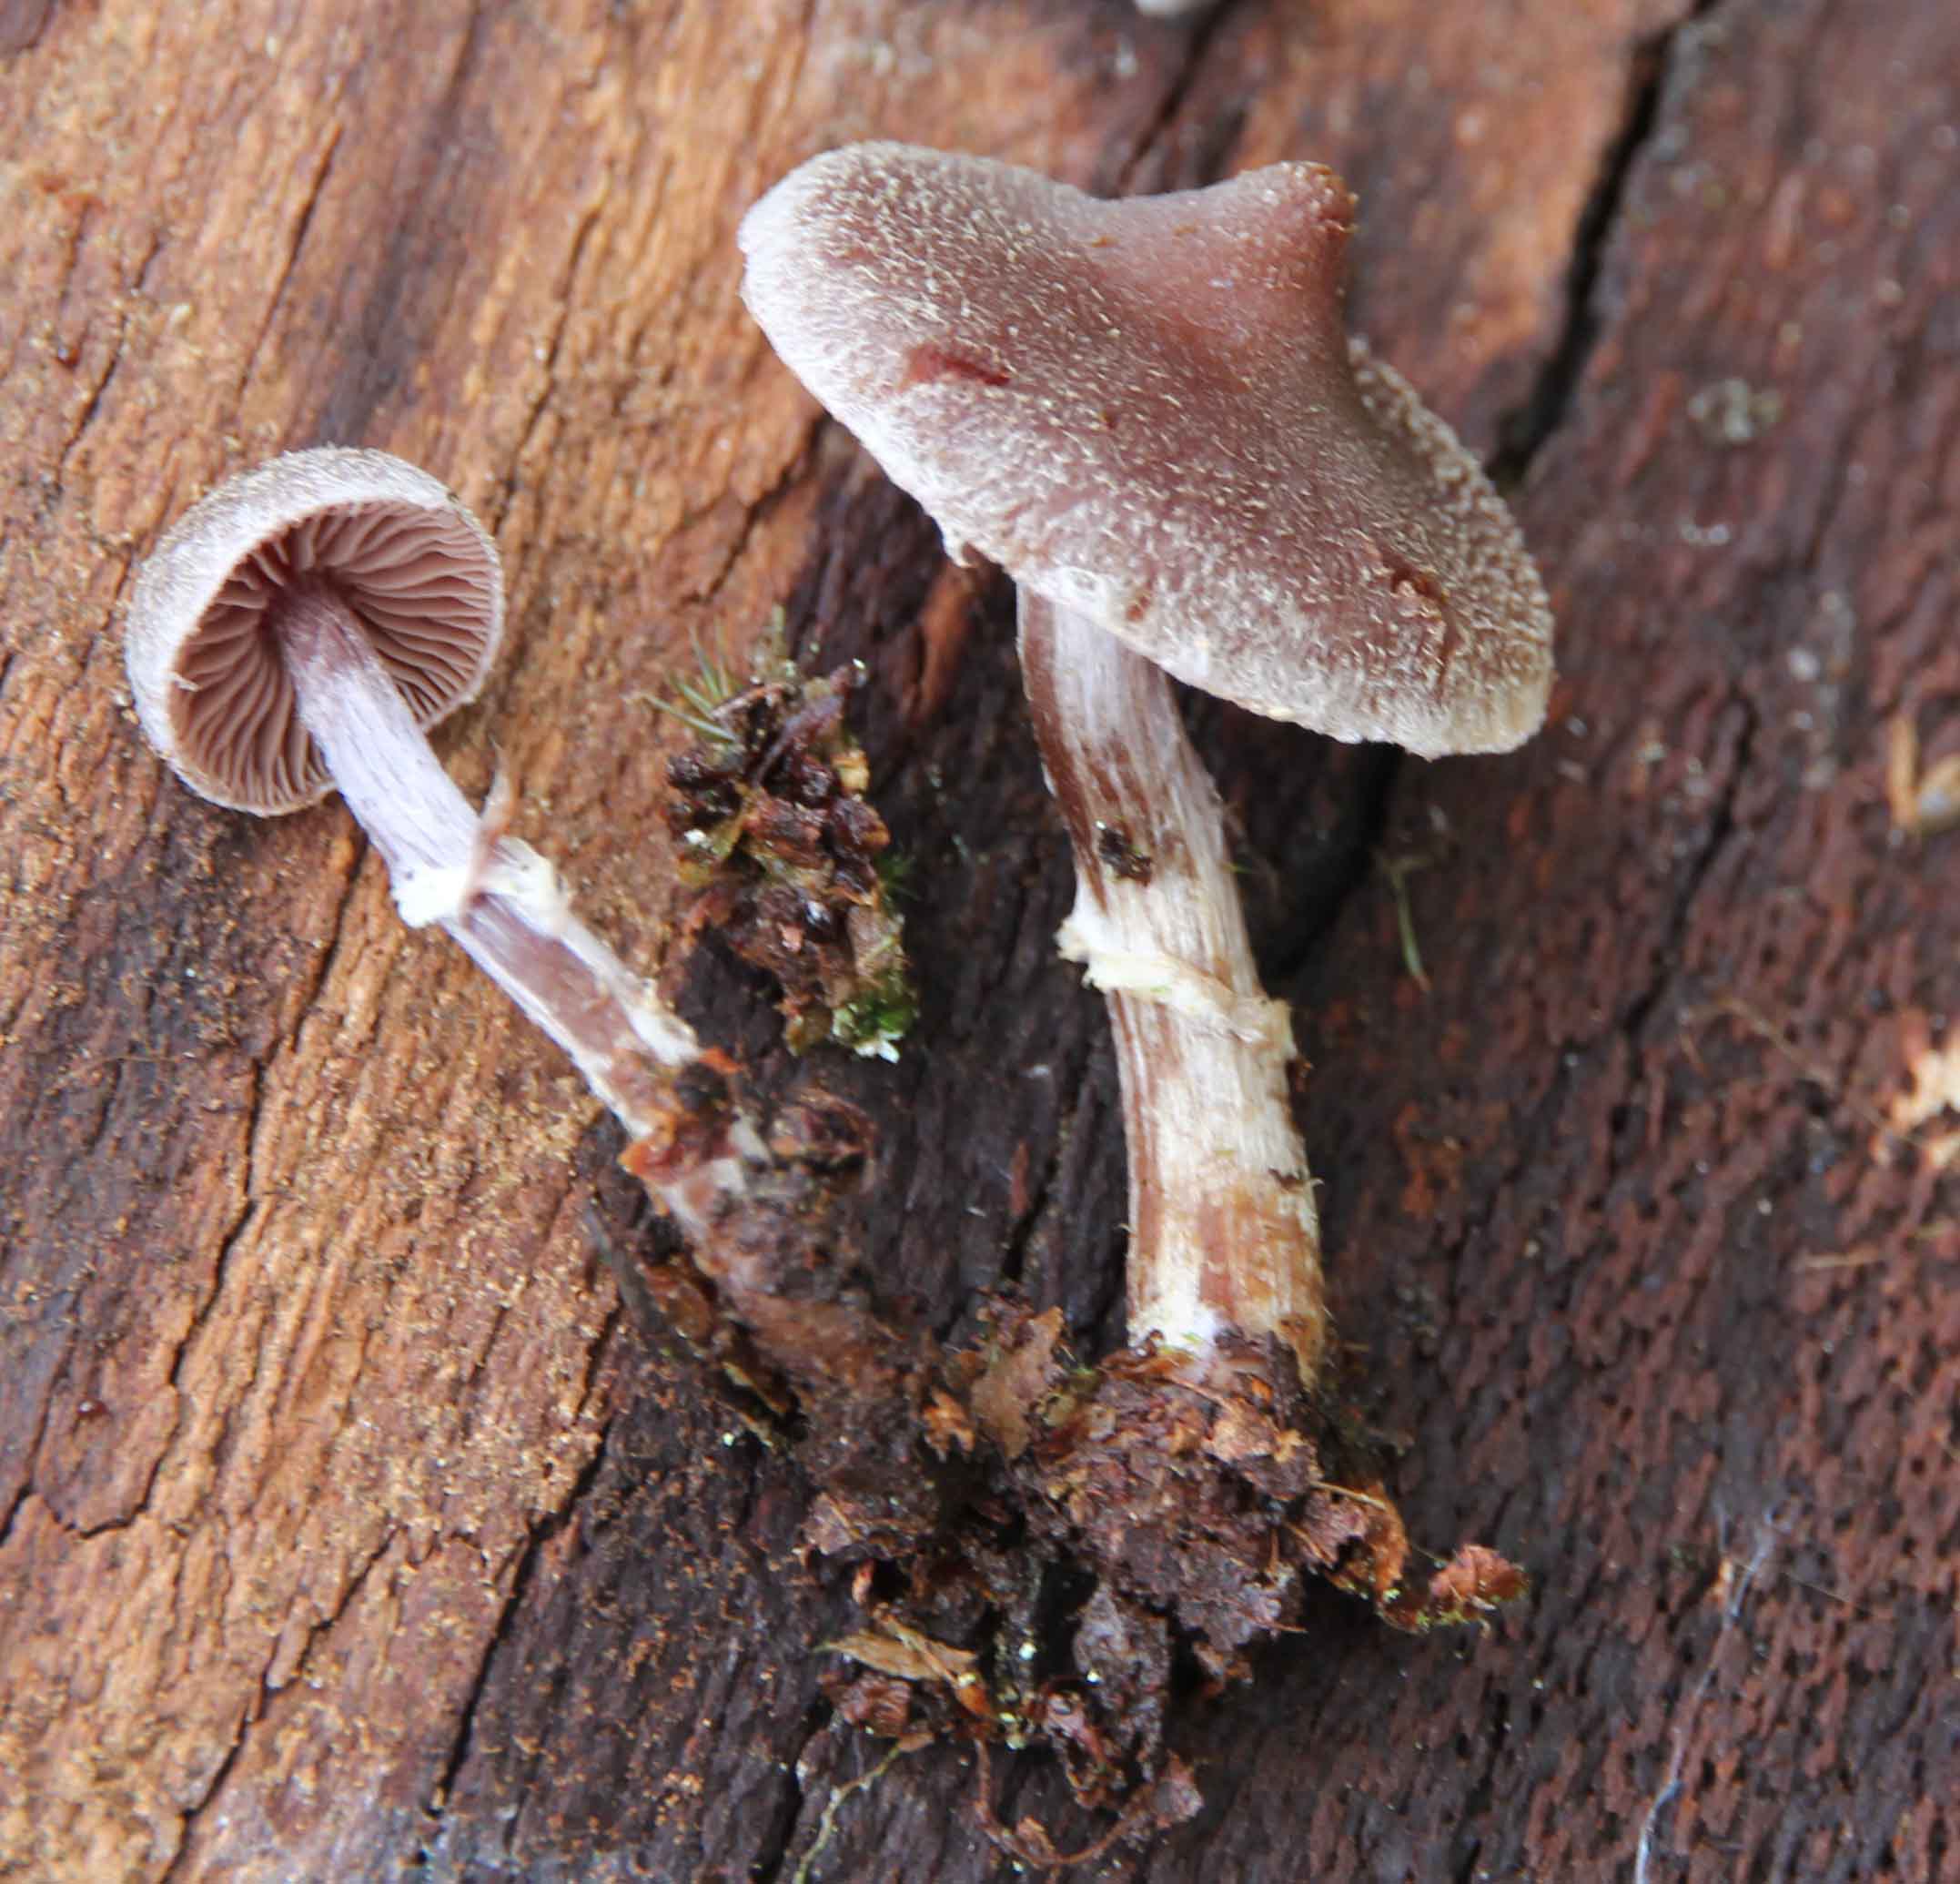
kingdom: Fungi
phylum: Basidiomycota
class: Agaricomycetes
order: Agaricales
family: Cortinariaceae
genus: Cortinarius
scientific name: Cortinarius
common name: pelargonie-slørhat
